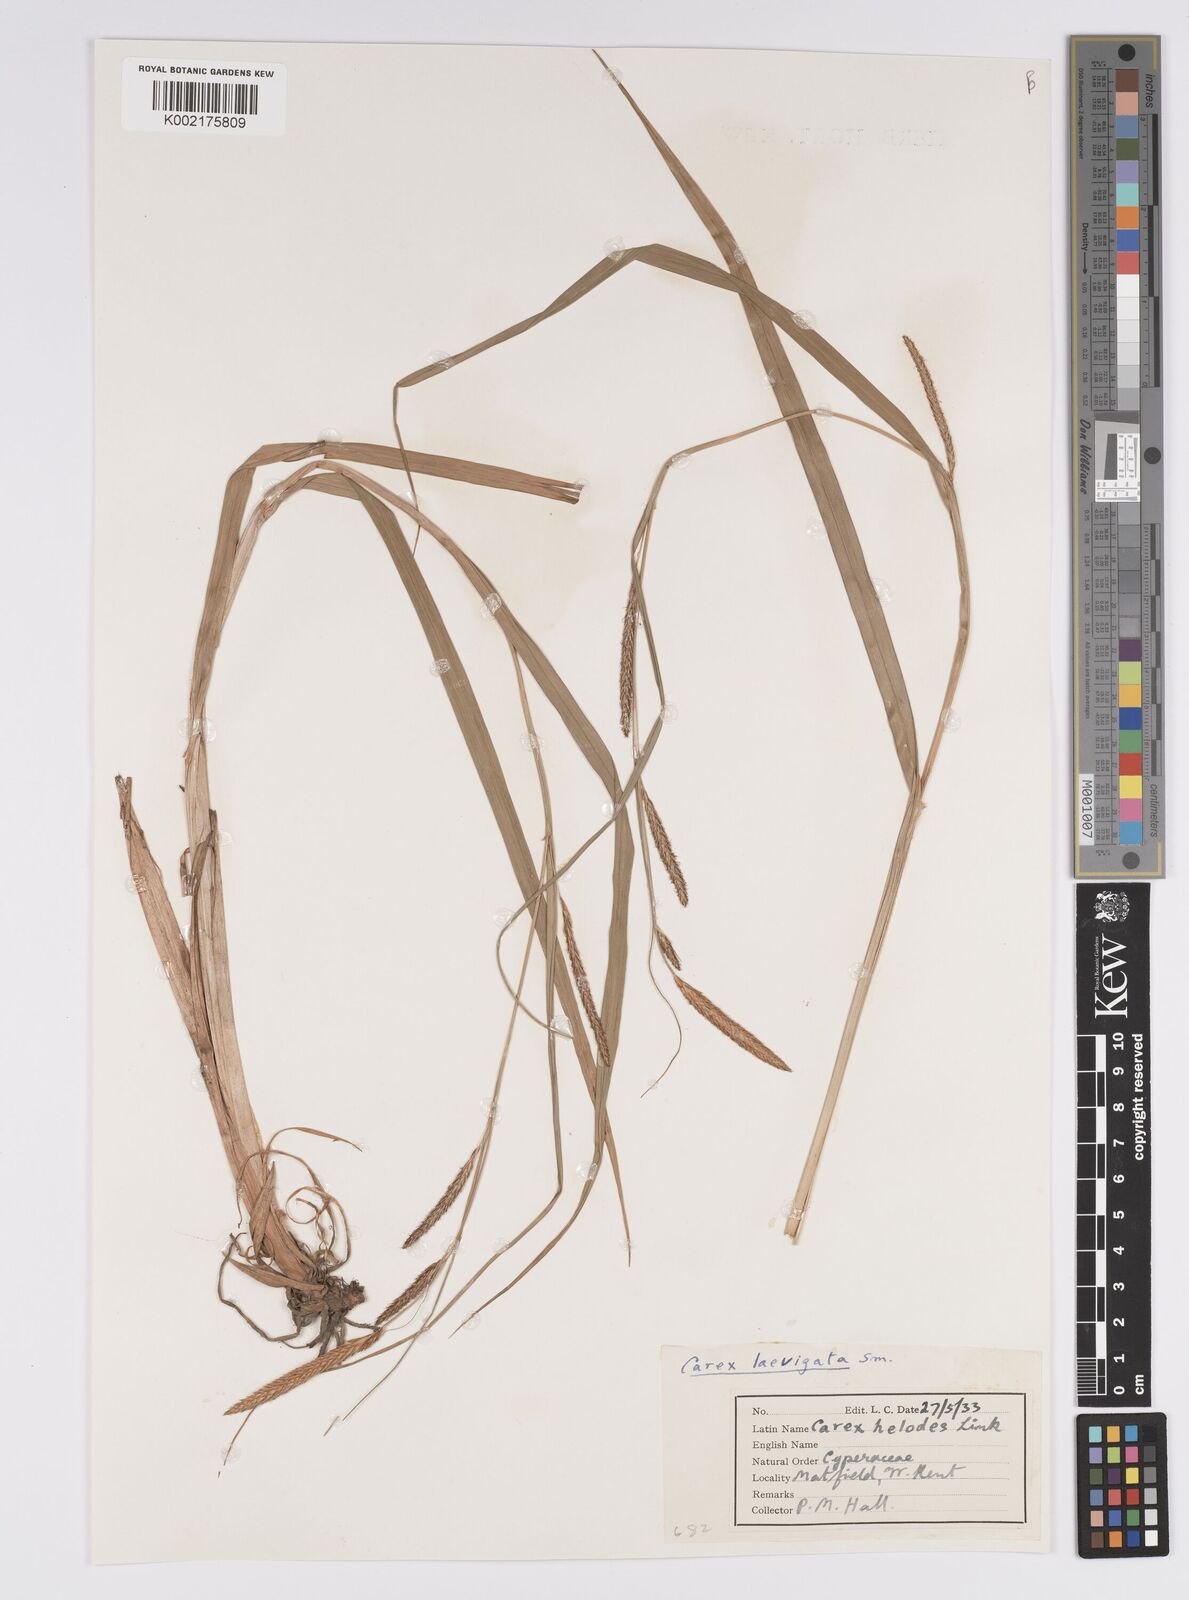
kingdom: Plantae
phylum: Tracheophyta
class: Liliopsida
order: Poales
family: Cyperaceae
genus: Carex
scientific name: Carex laevigata
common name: Smooth-stalked sedge
